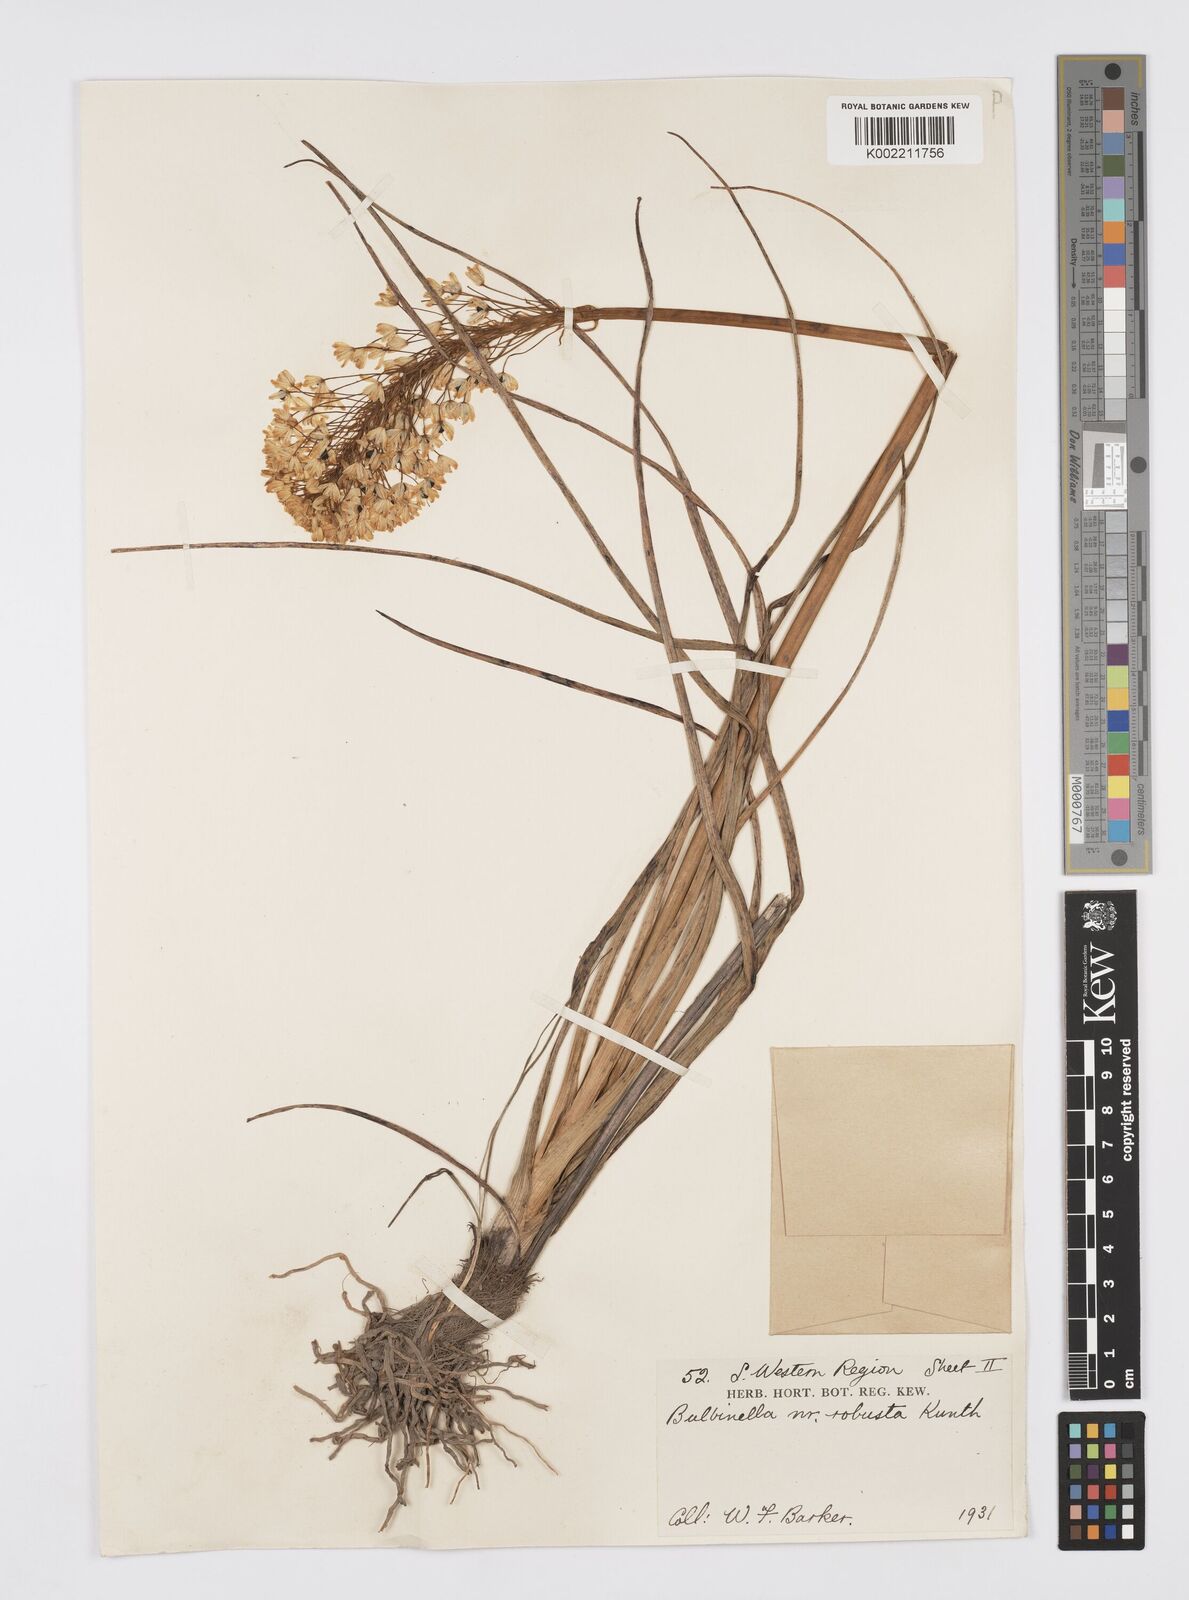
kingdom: Plantae
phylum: Tracheophyta
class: Liliopsida
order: Asparagales
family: Asphodelaceae
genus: Bulbinella
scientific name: Bulbinella nutans
